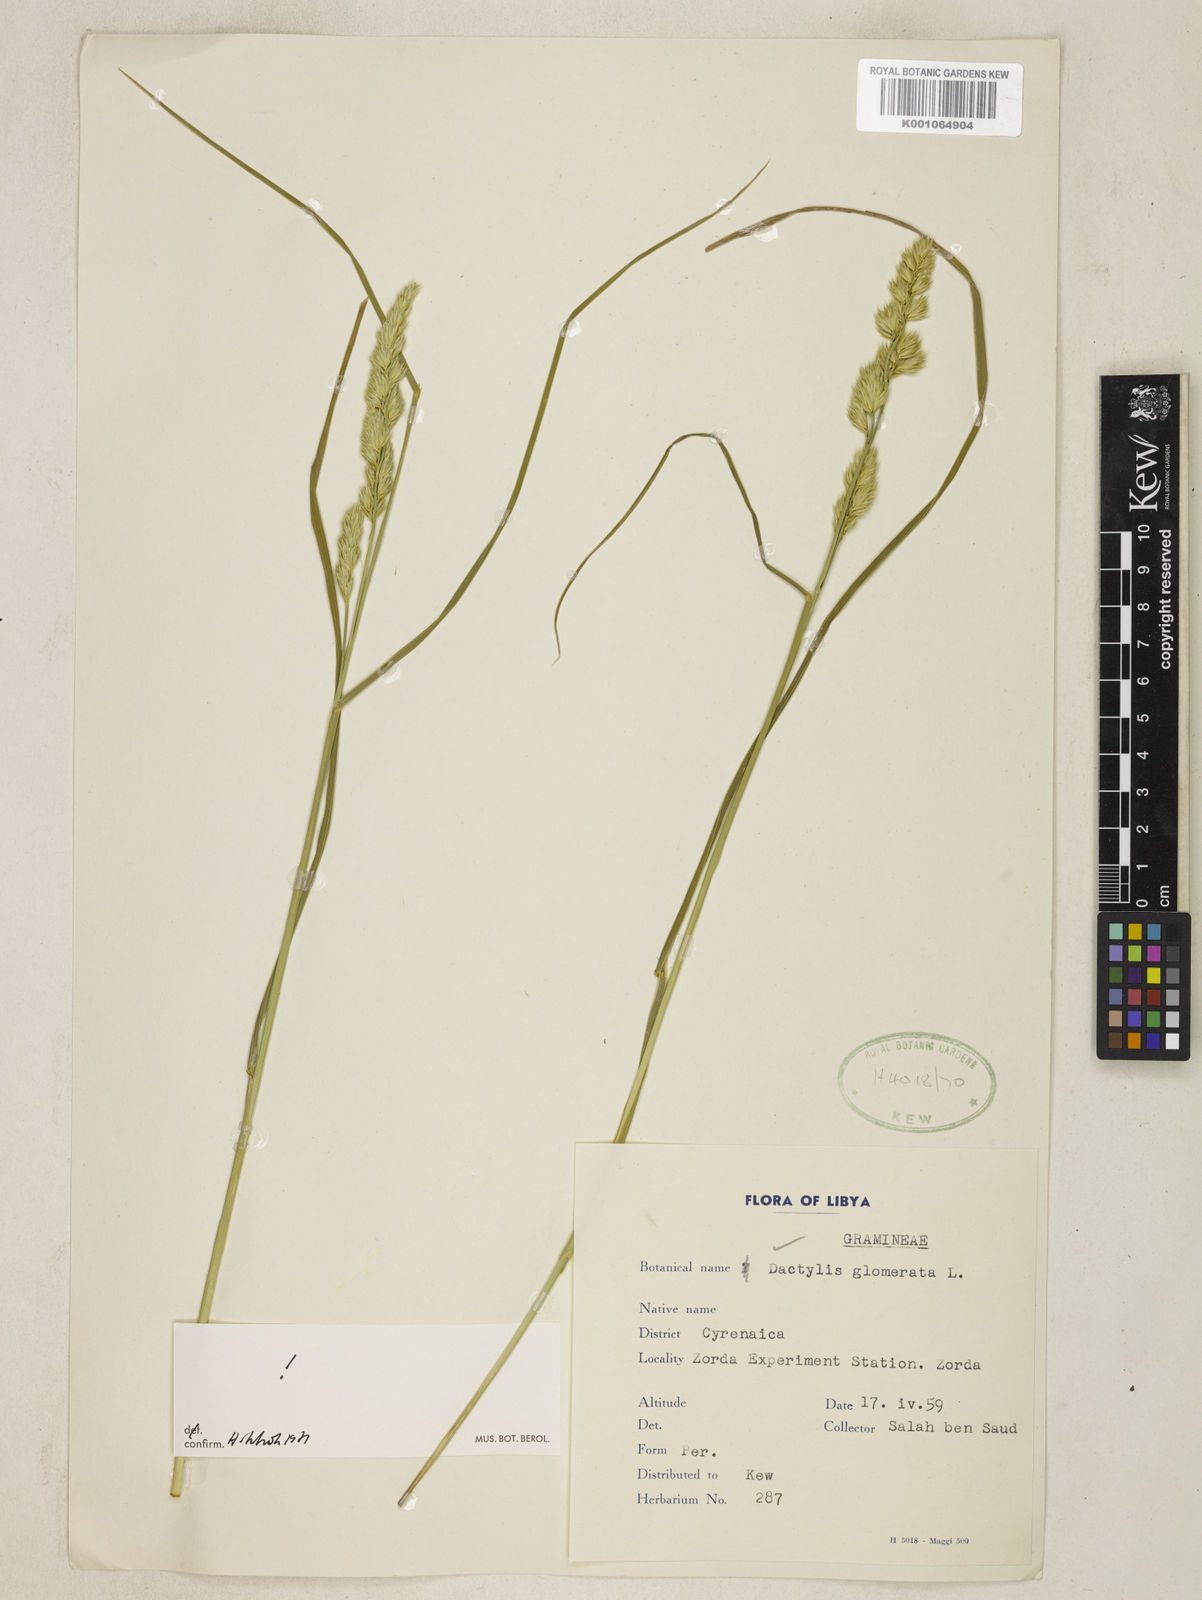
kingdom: Plantae
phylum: Tracheophyta
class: Liliopsida
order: Poales
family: Poaceae
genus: Dactylis
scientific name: Dactylis glomerata
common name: Orchardgrass
